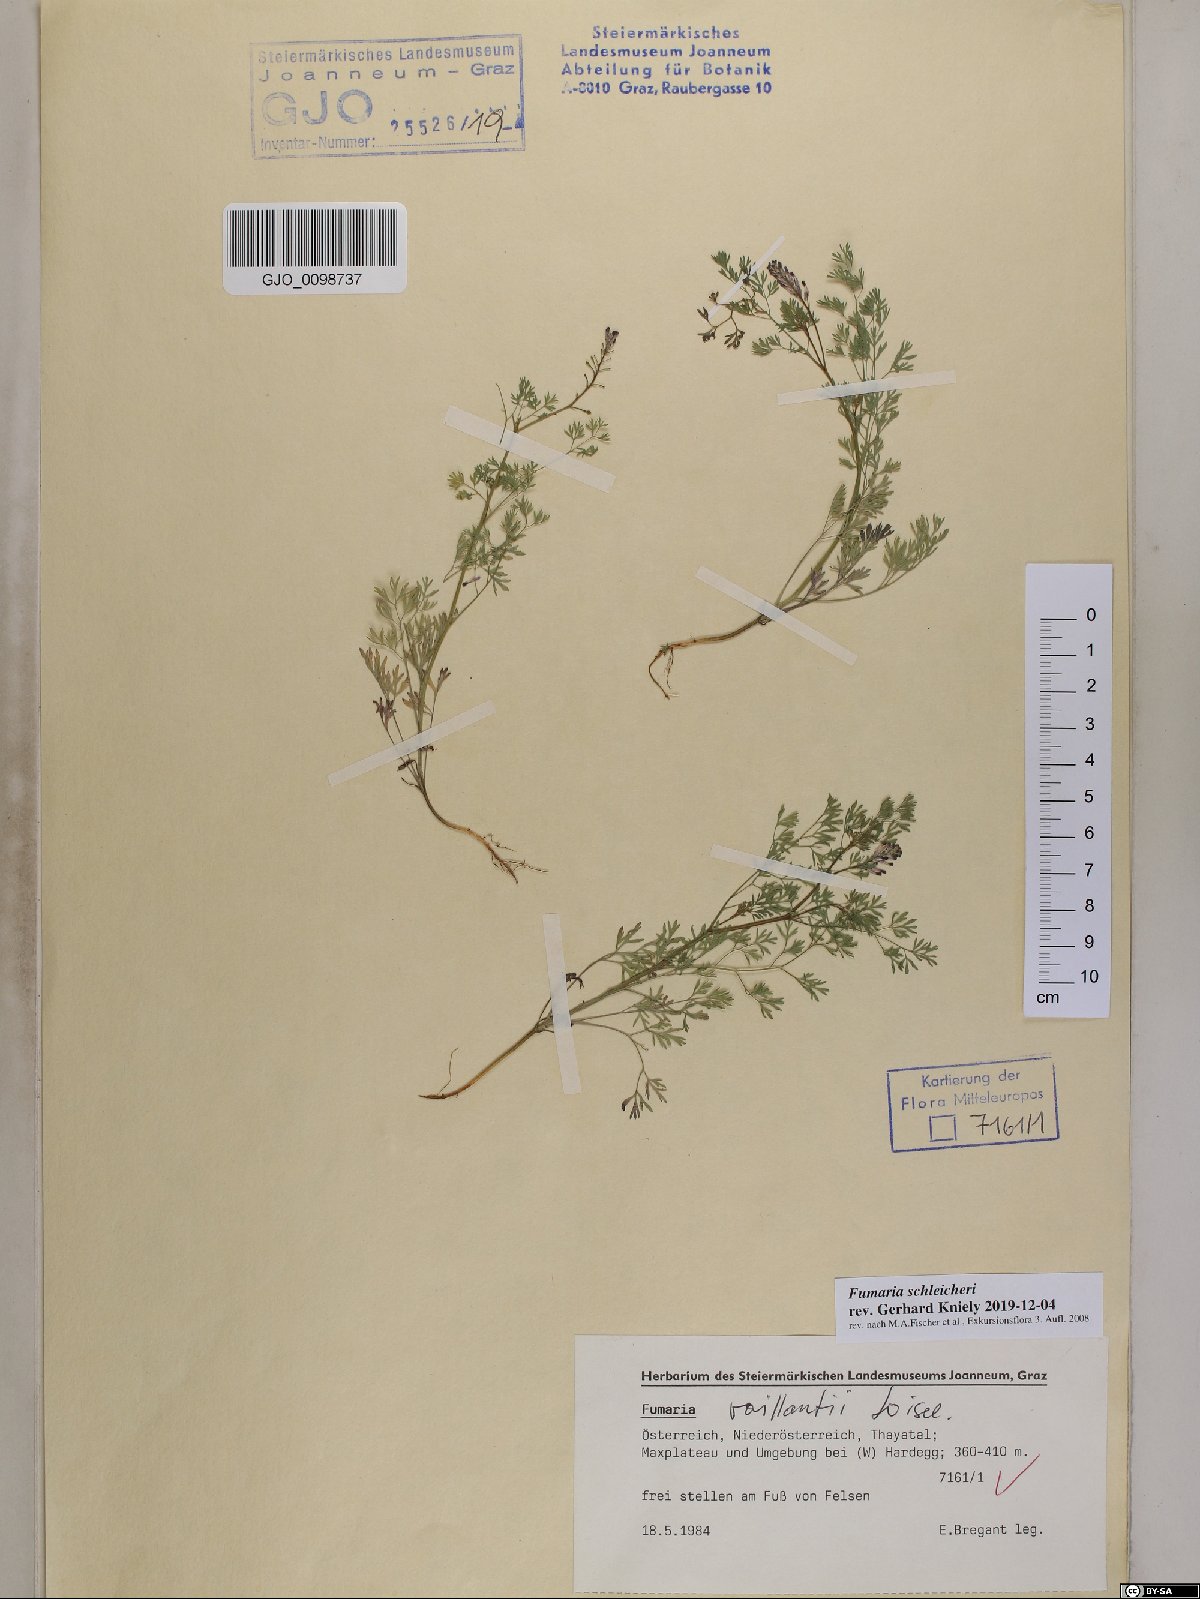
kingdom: Plantae
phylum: Tracheophyta
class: Magnoliopsida
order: Ranunculales
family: Papaveraceae
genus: Fumaria
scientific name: Fumaria schleicheri
